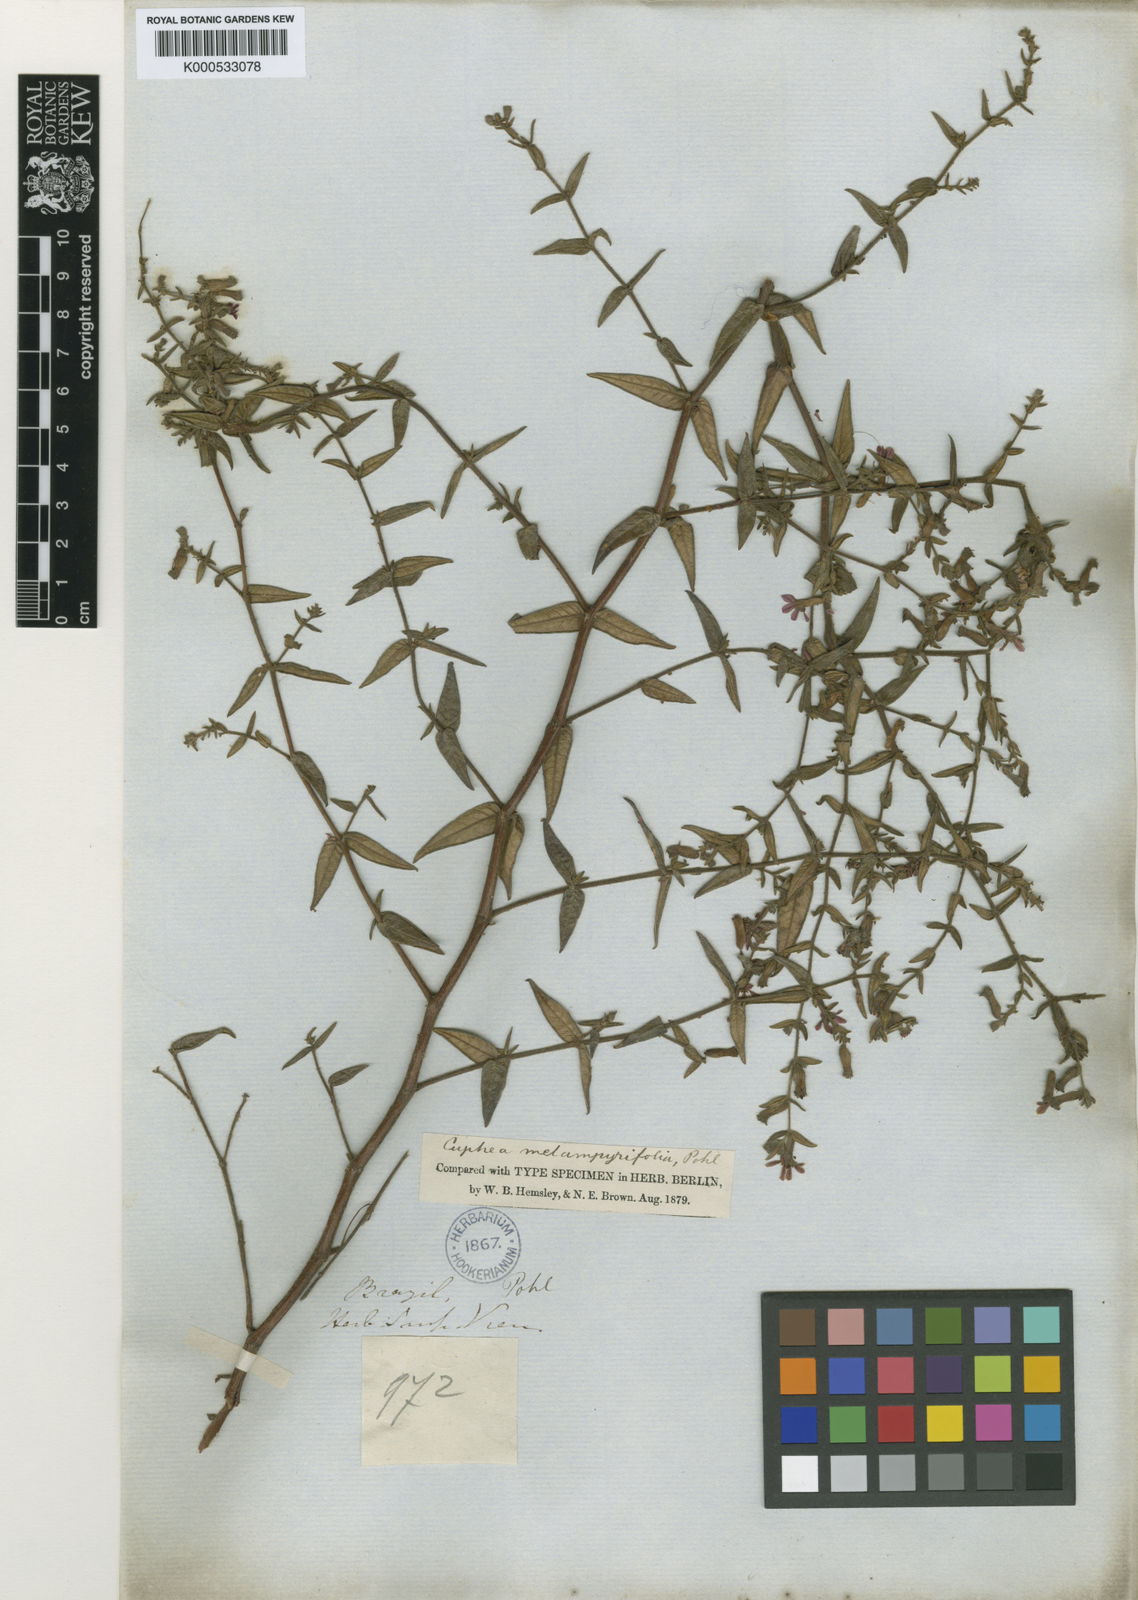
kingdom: Plantae
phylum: Tracheophyta
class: Magnoliopsida
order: Myrtales
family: Lythraceae
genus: Cuphea
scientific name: Cuphea
